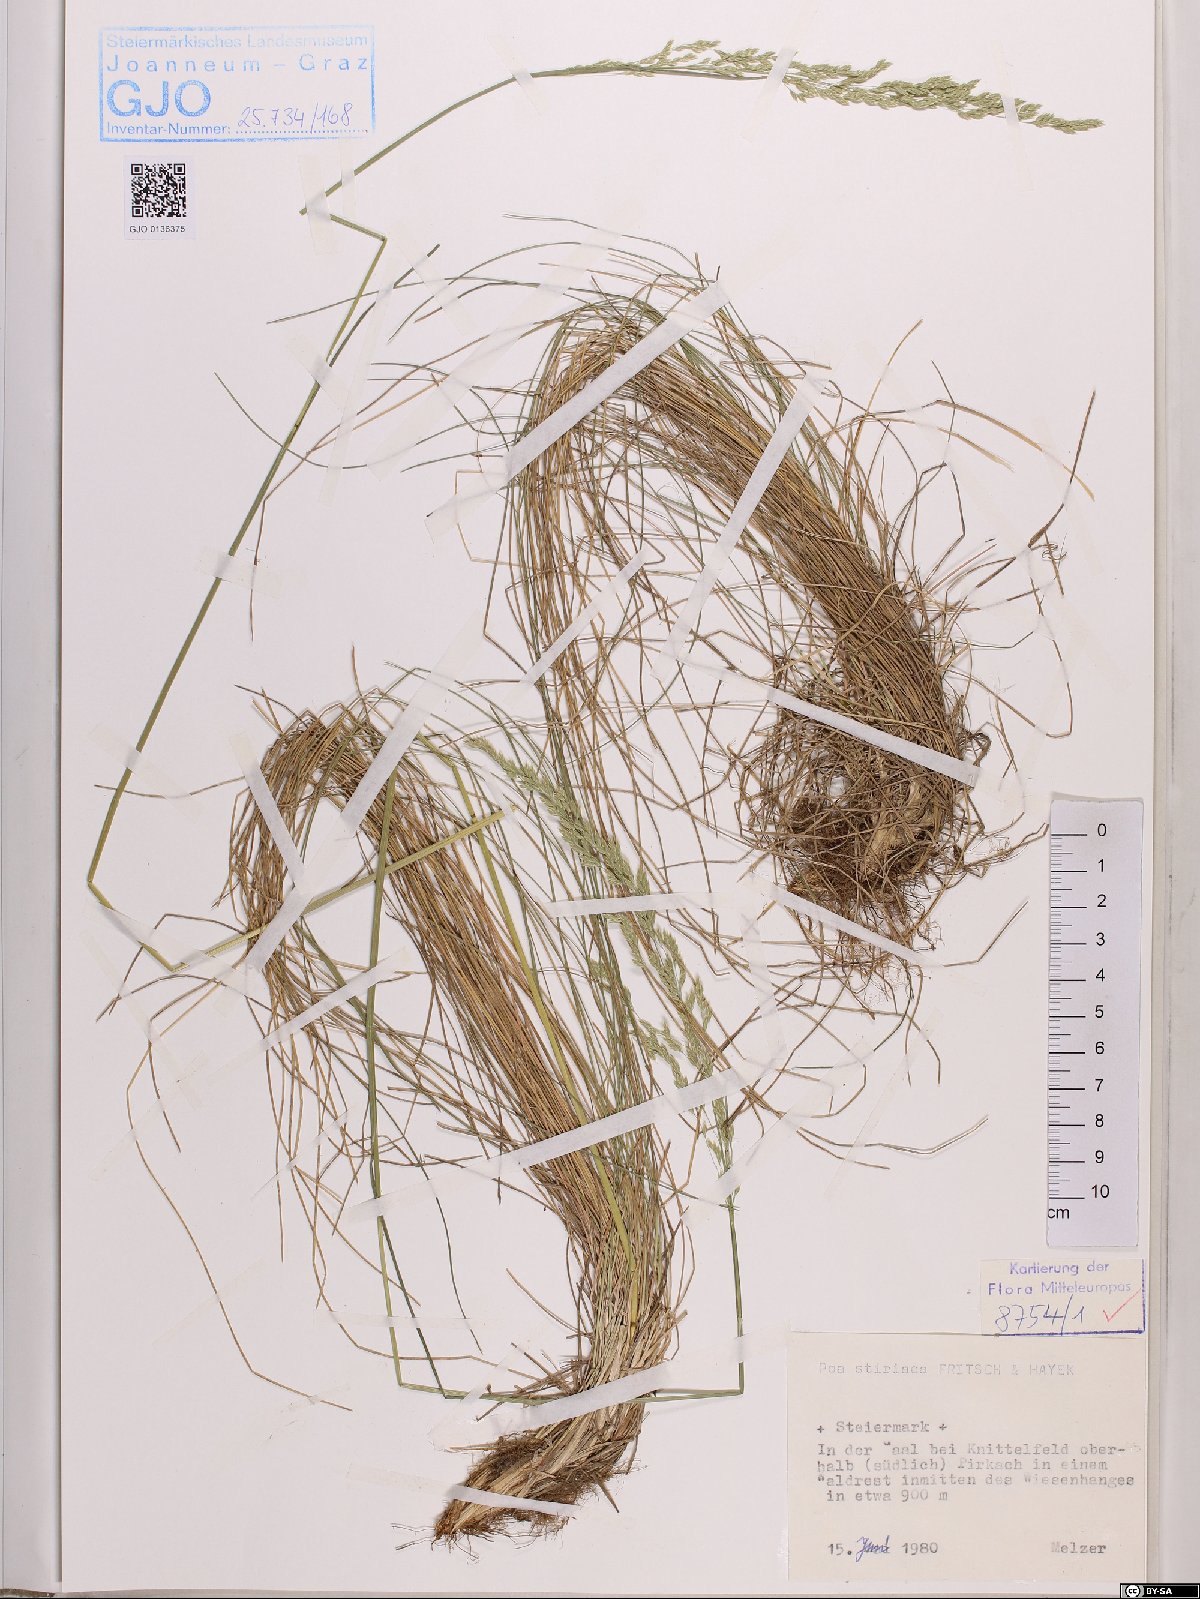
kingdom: Plantae
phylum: Tracheophyta
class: Liliopsida
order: Poales
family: Poaceae
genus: Poa
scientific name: Poa stiriaca
